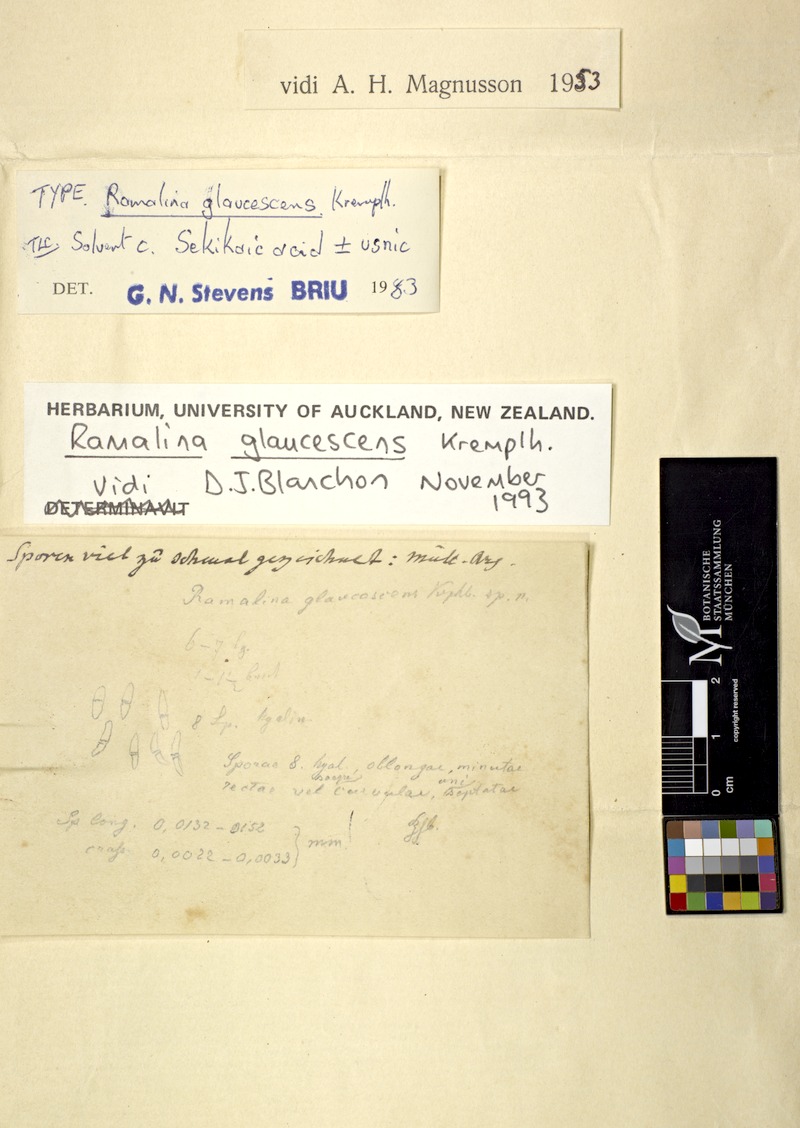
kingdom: Fungi
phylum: Ascomycota
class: Lecanoromycetes
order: Lecanorales
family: Ramalinaceae
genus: Ramalina
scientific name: Ramalina glaucescens
